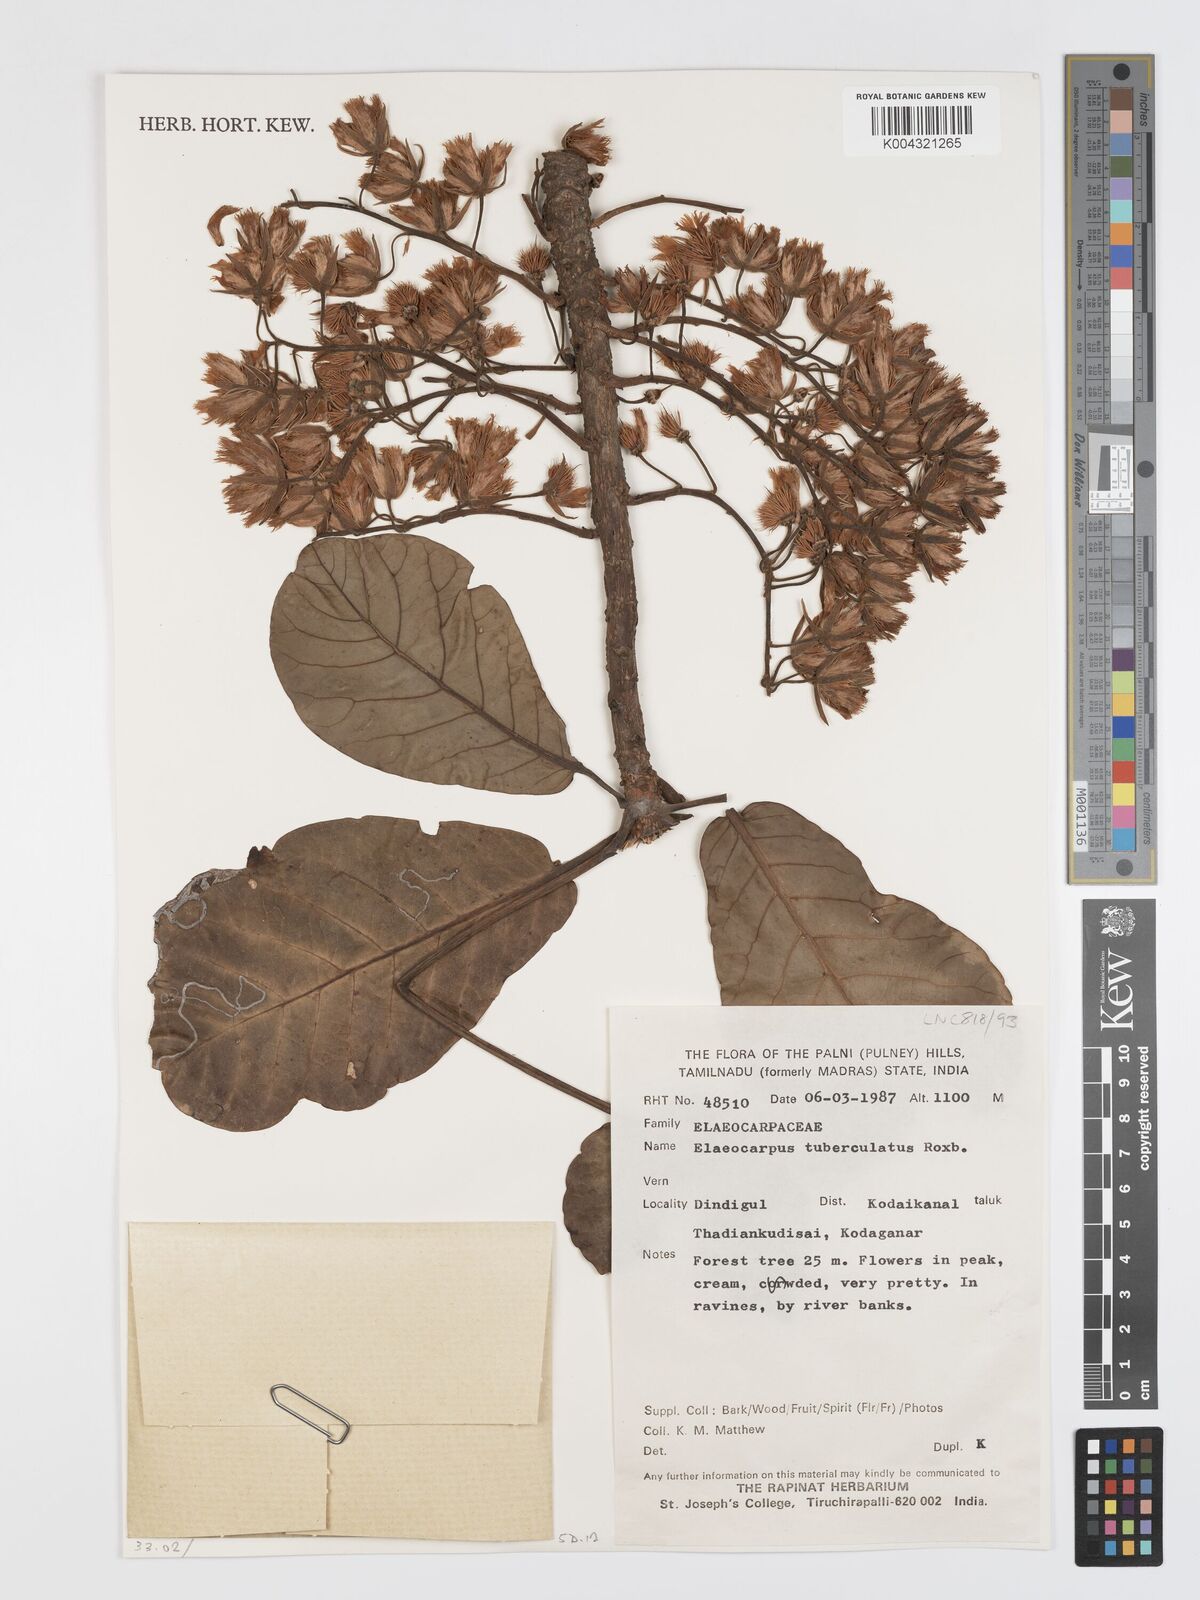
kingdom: Plantae
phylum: Tracheophyta
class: Magnoliopsida
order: Oxalidales
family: Elaeocarpaceae
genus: Elaeocarpus
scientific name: Elaeocarpus tuberculatus
